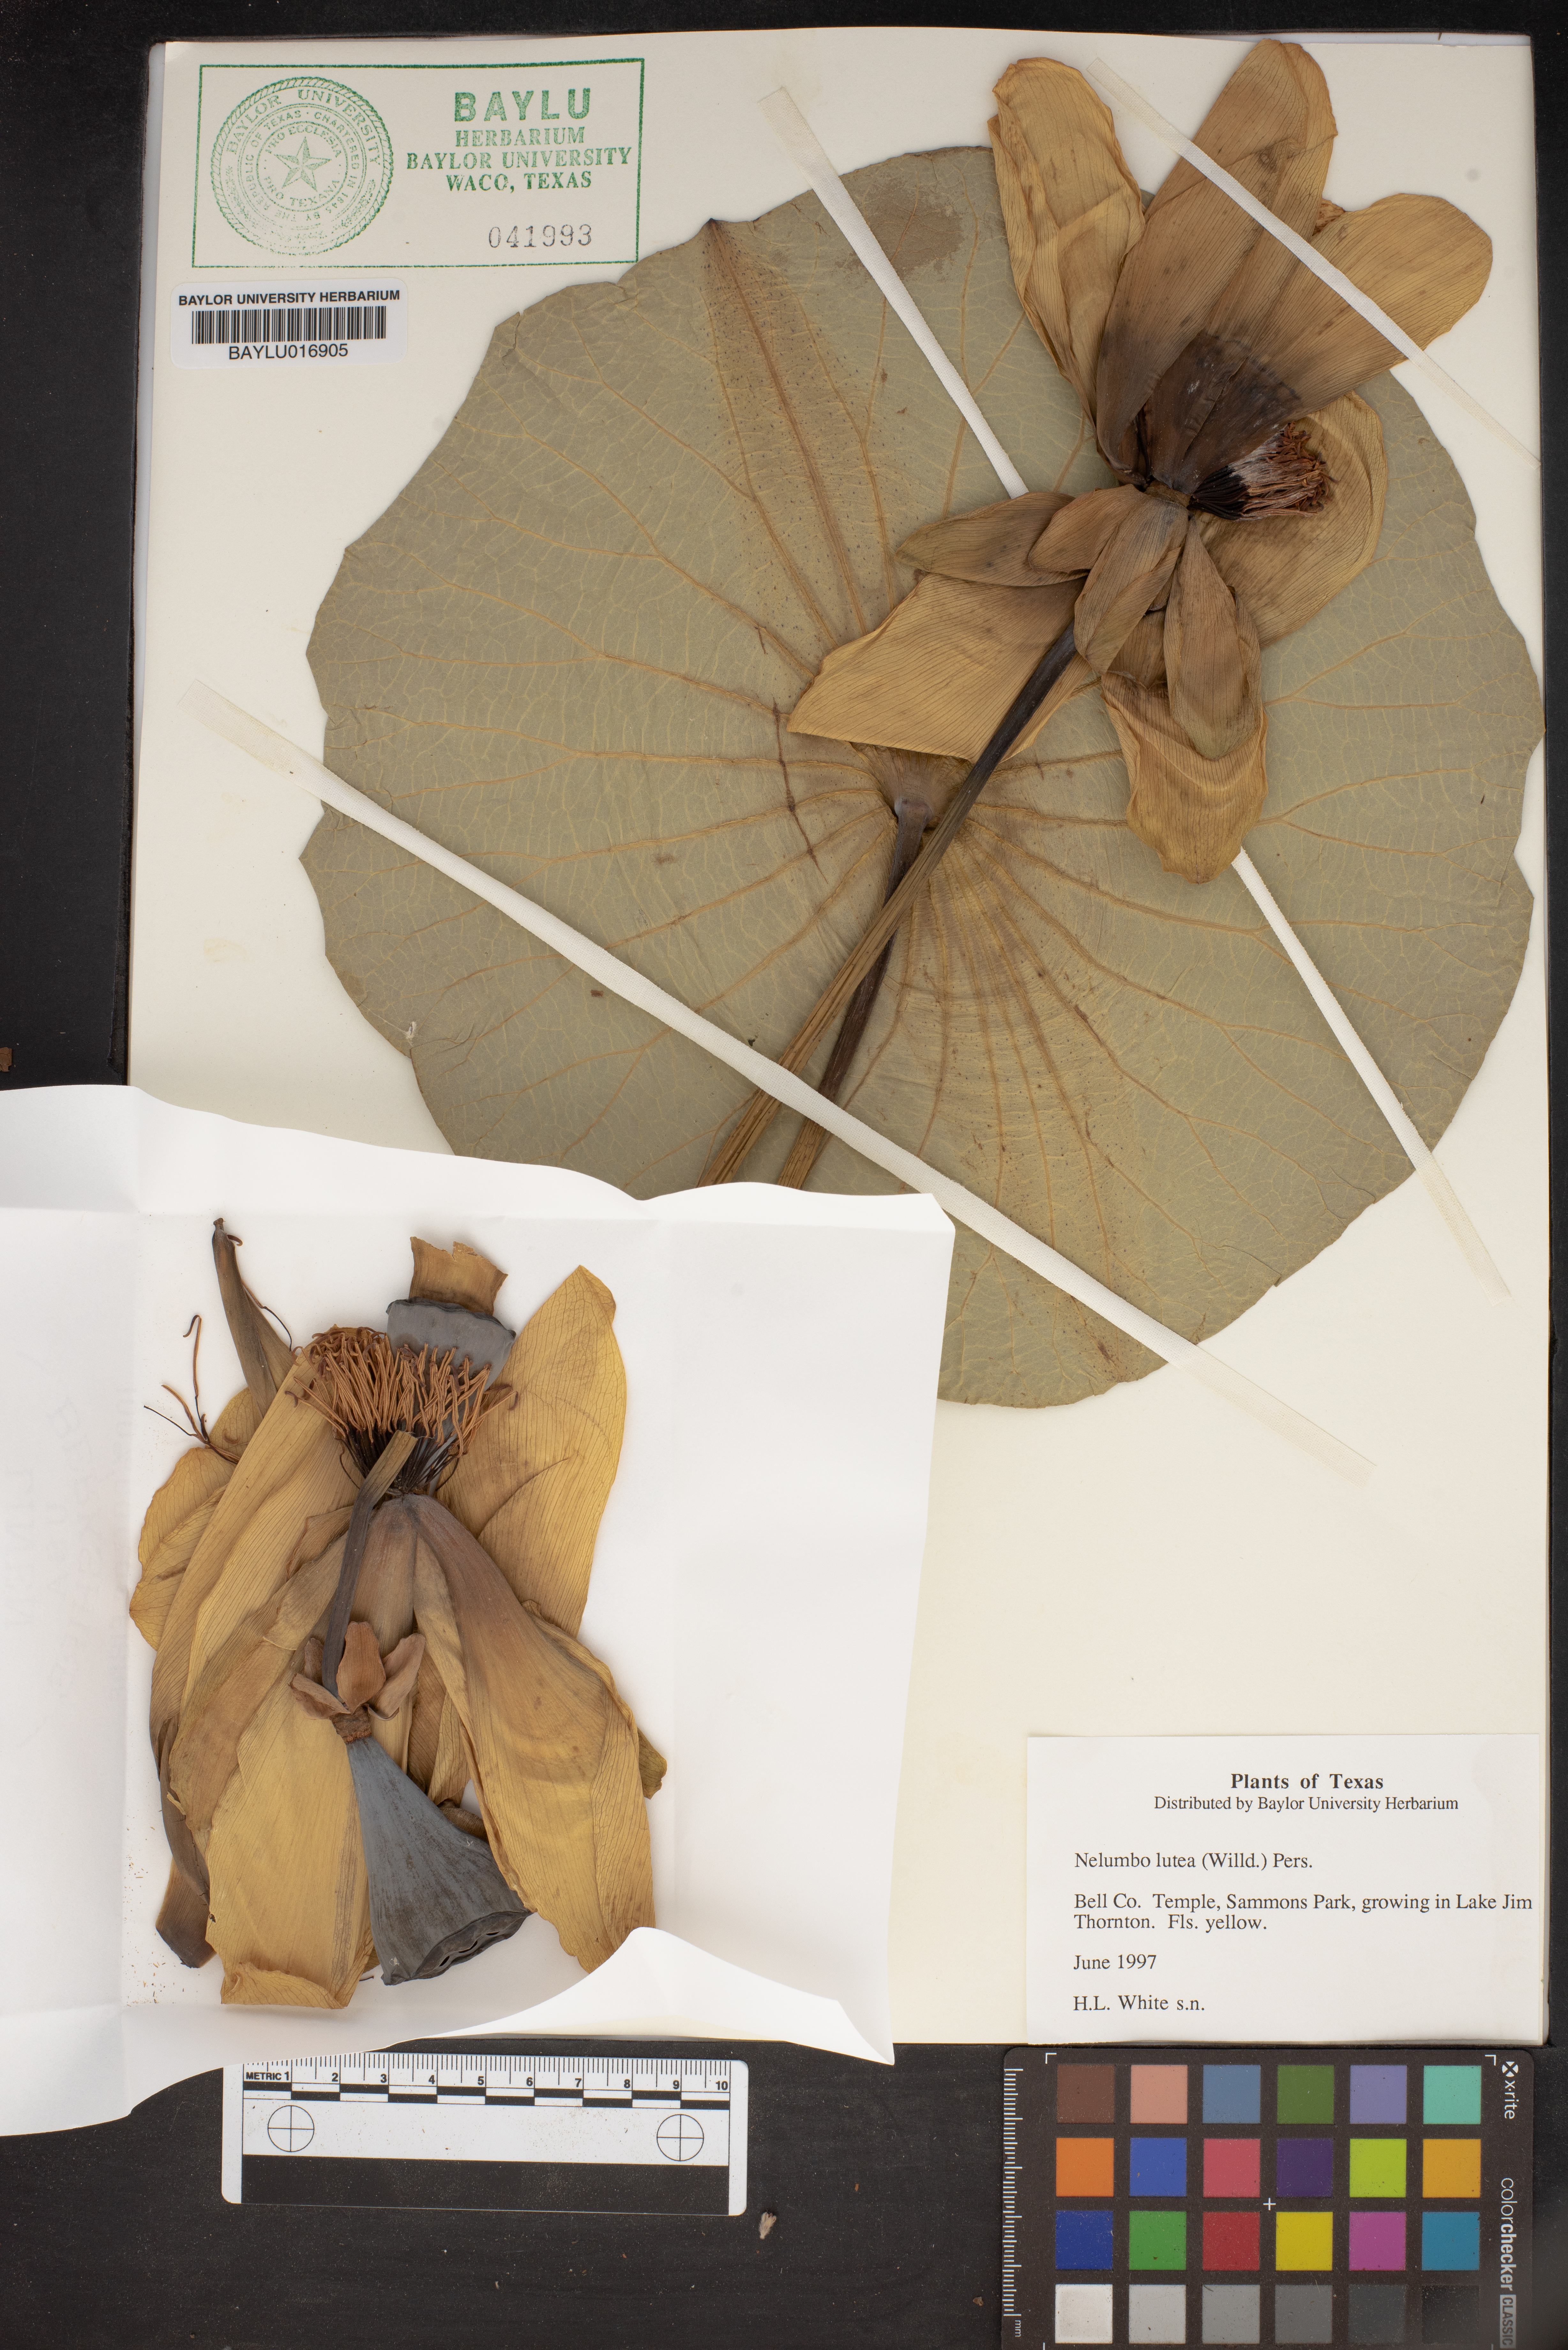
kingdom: Plantae
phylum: Tracheophyta
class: Magnoliopsida
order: Proteales
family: Nelumbonaceae
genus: Nelumbo
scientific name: Nelumbo lutea
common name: American lotus
